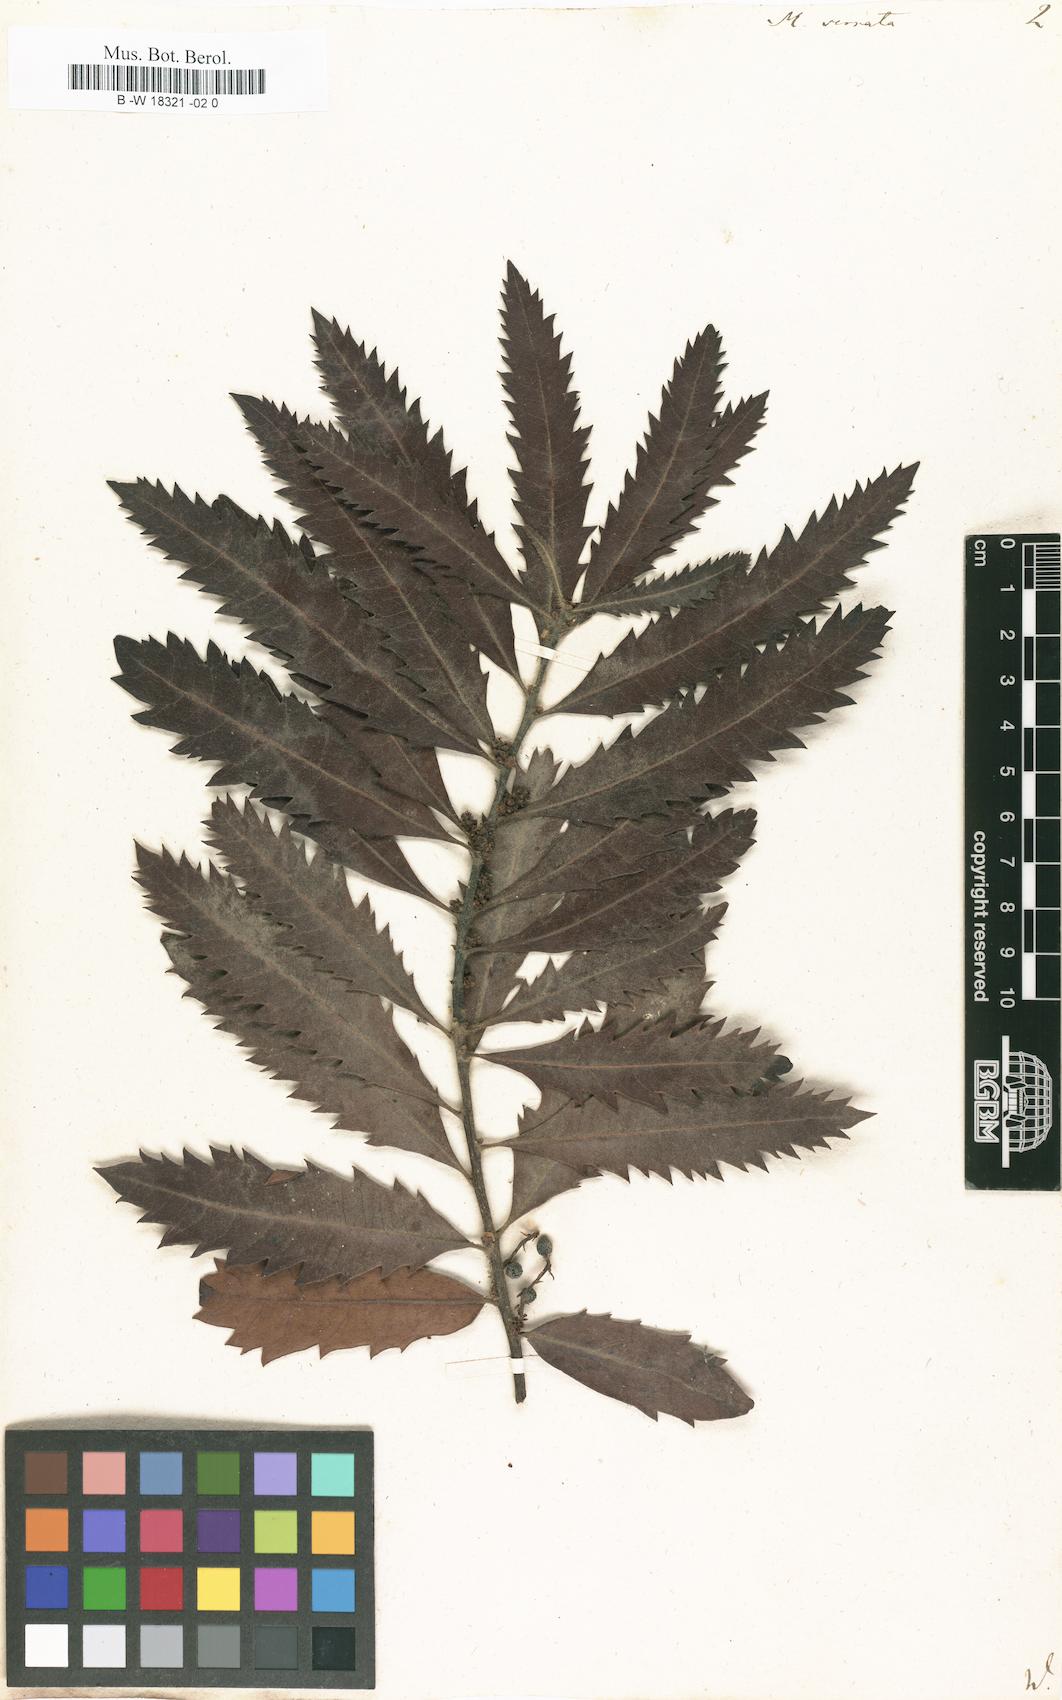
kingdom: Plantae
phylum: Tracheophyta
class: Magnoliopsida
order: Fagales
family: Myricaceae
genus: Morella
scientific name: Morella serrata
